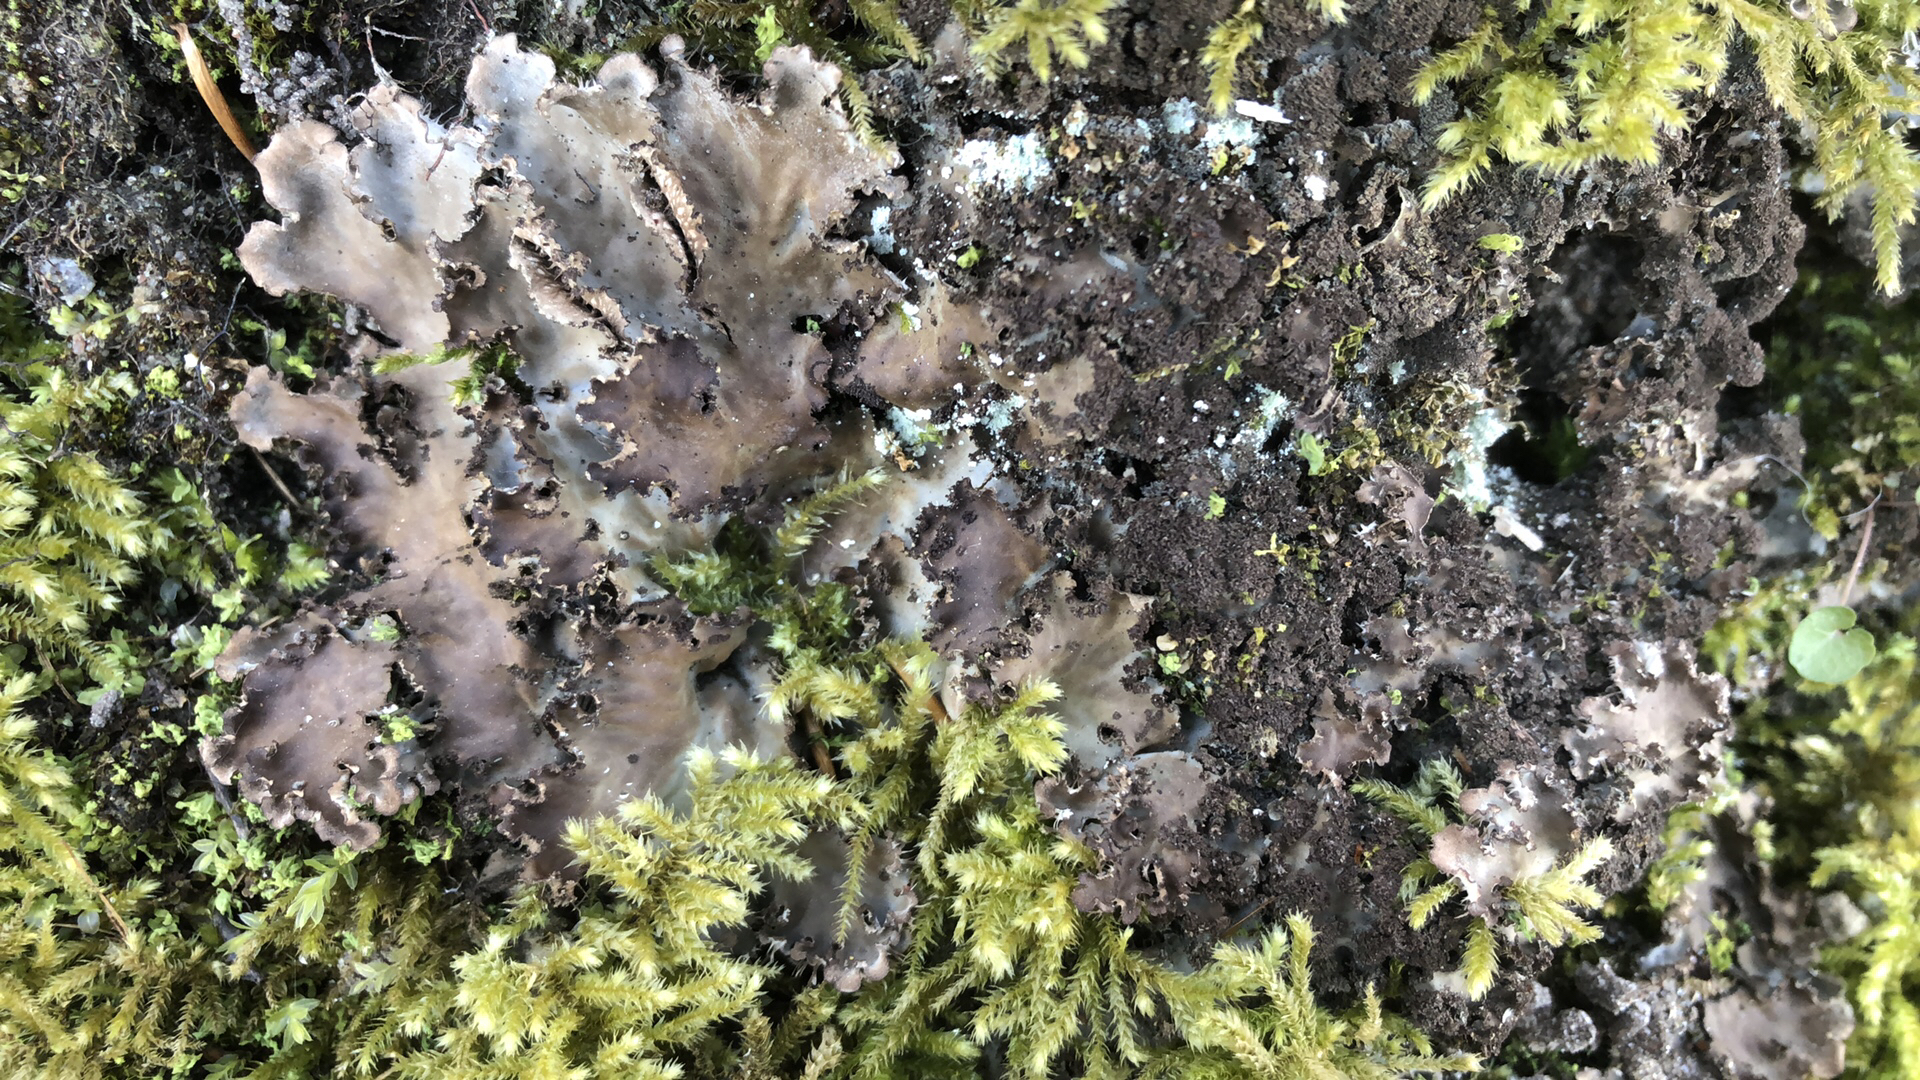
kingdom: Fungi
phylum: Ascomycota
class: Lecanoromycetes
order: Peltigerales
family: Peltigeraceae
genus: Peltigera
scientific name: Peltigera praetextata
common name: kruset skjoldlav
